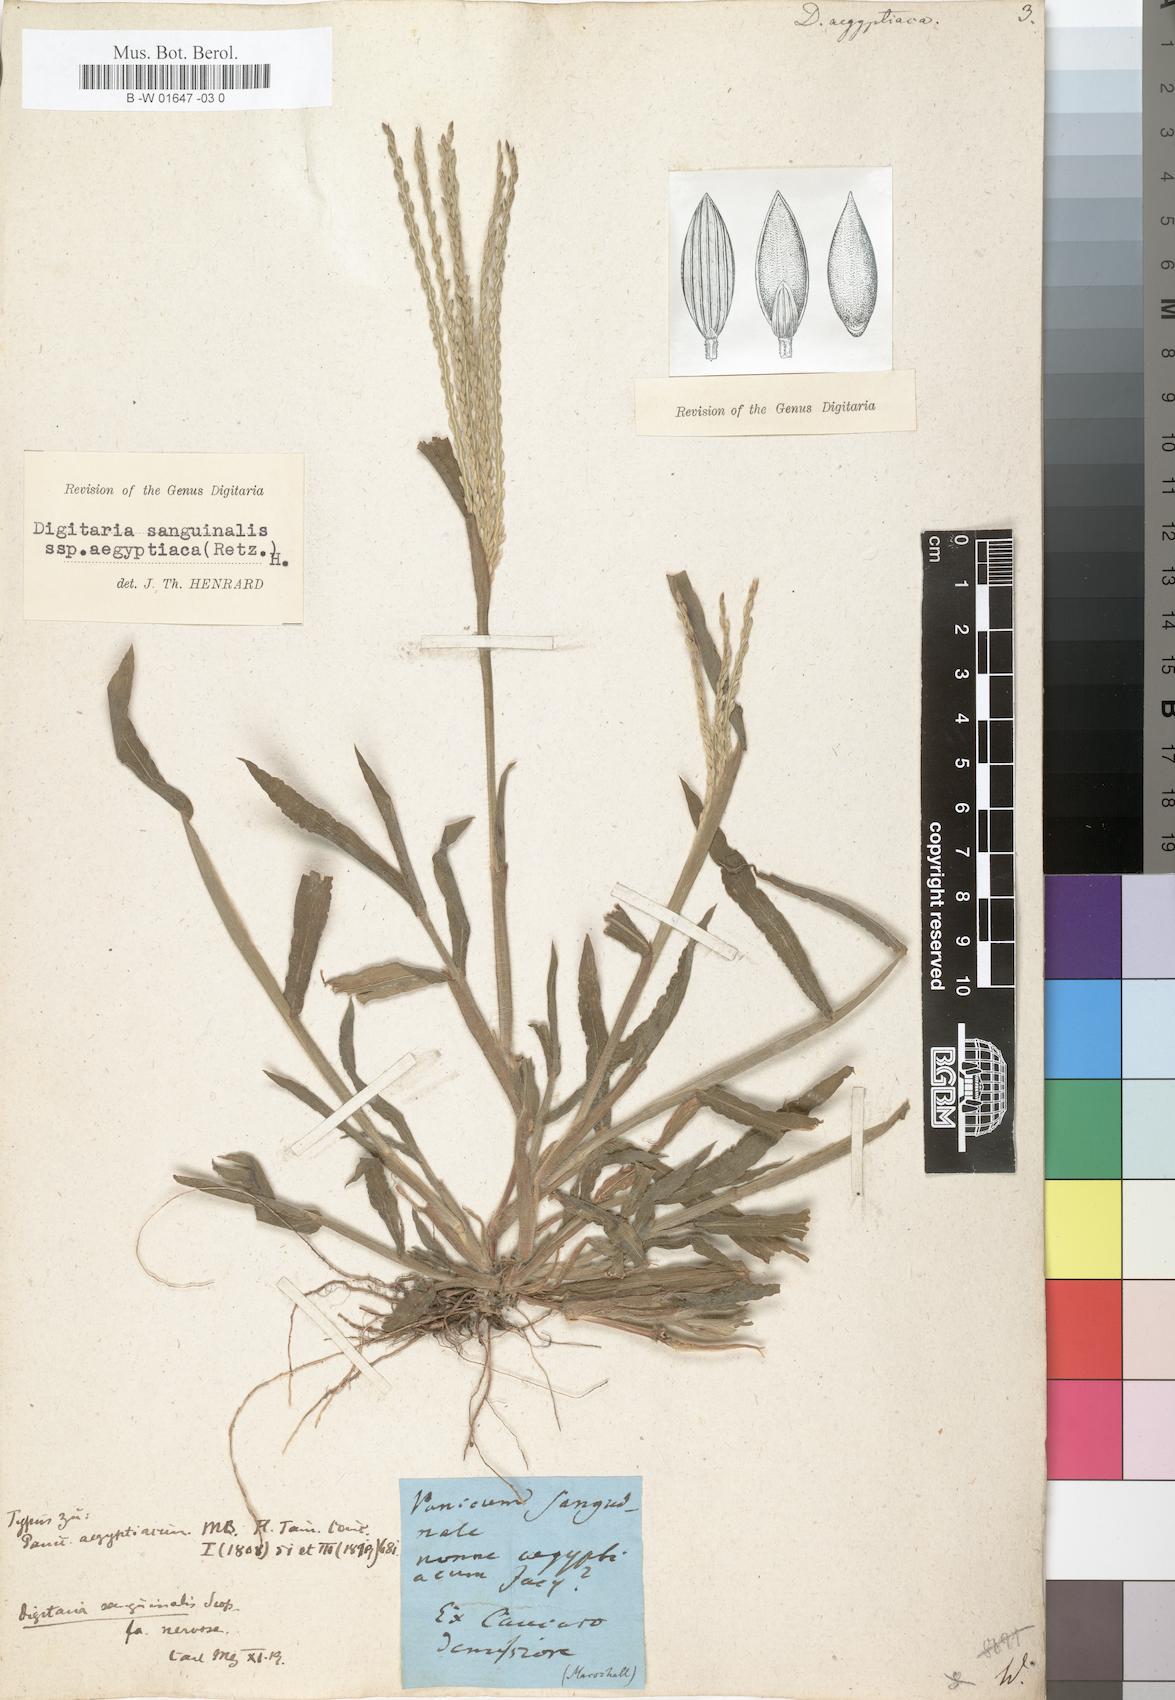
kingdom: Plantae
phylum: Tracheophyta
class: Liliopsida
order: Poales
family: Poaceae
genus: Digitaria
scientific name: Digitaria sanguinalis
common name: Hairy crabgrass
